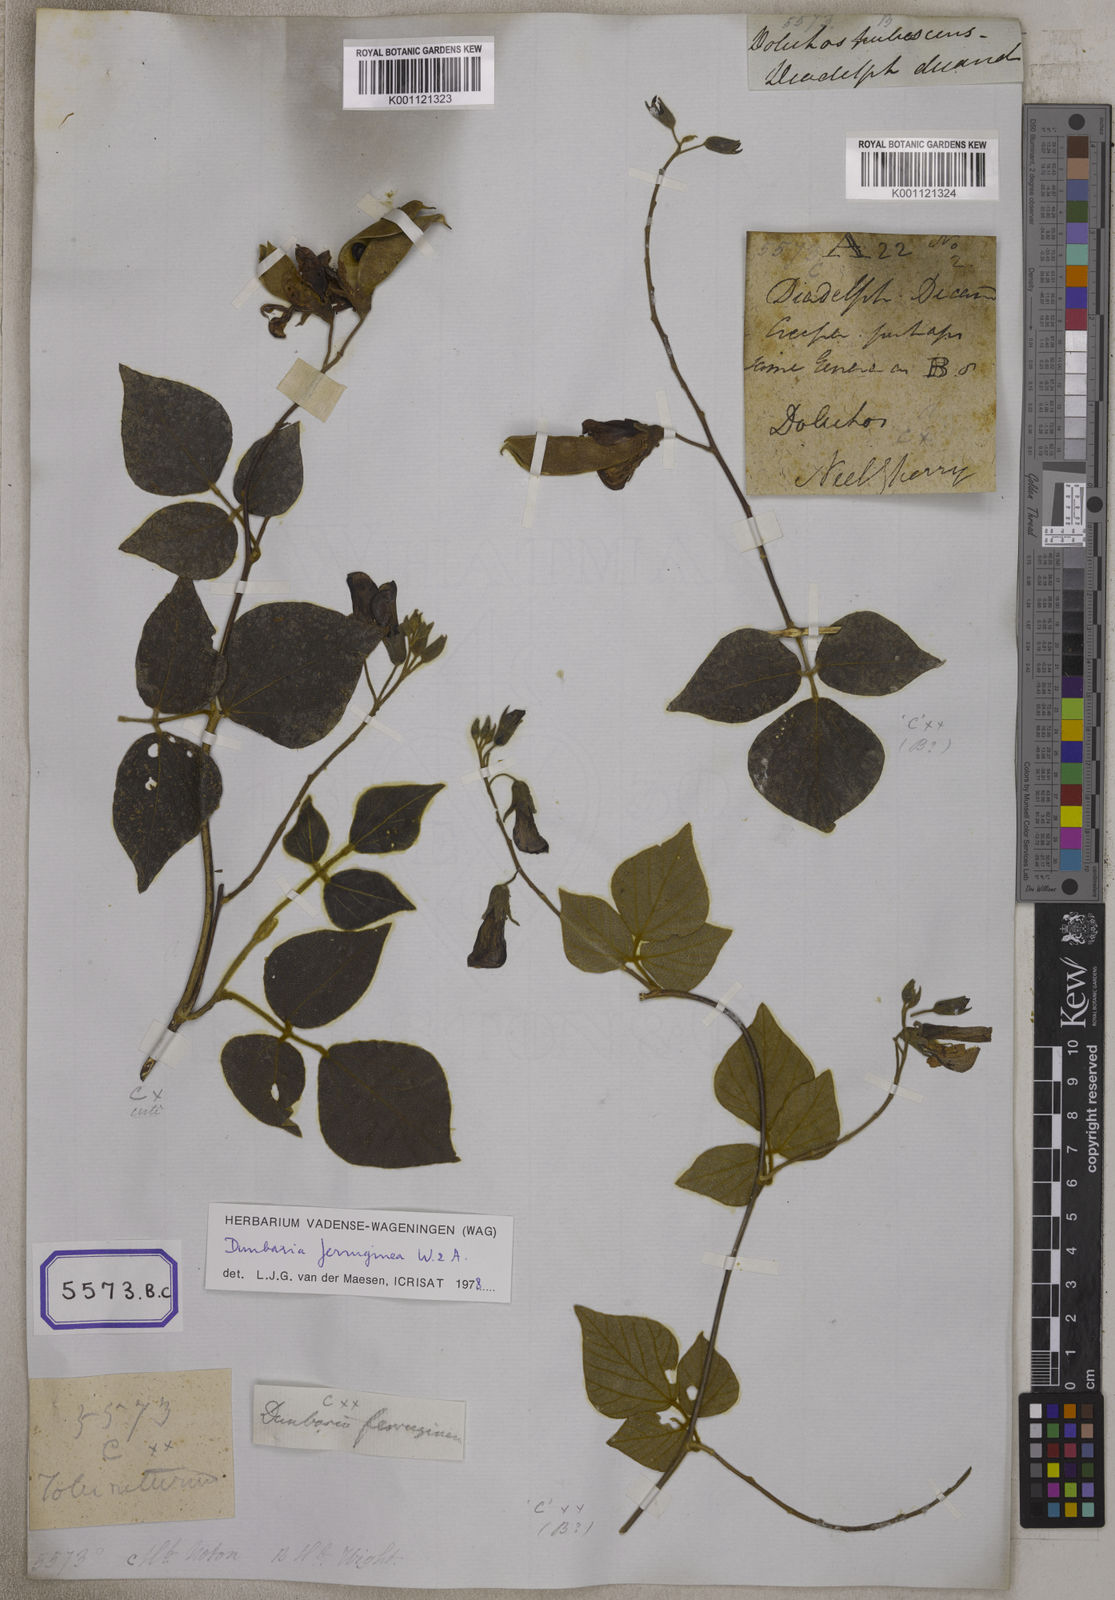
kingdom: Plantae
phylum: Tracheophyta
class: Magnoliopsida
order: Fabales
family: Fabaceae
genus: Dunbaria
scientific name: Dunbaria ferruginea
